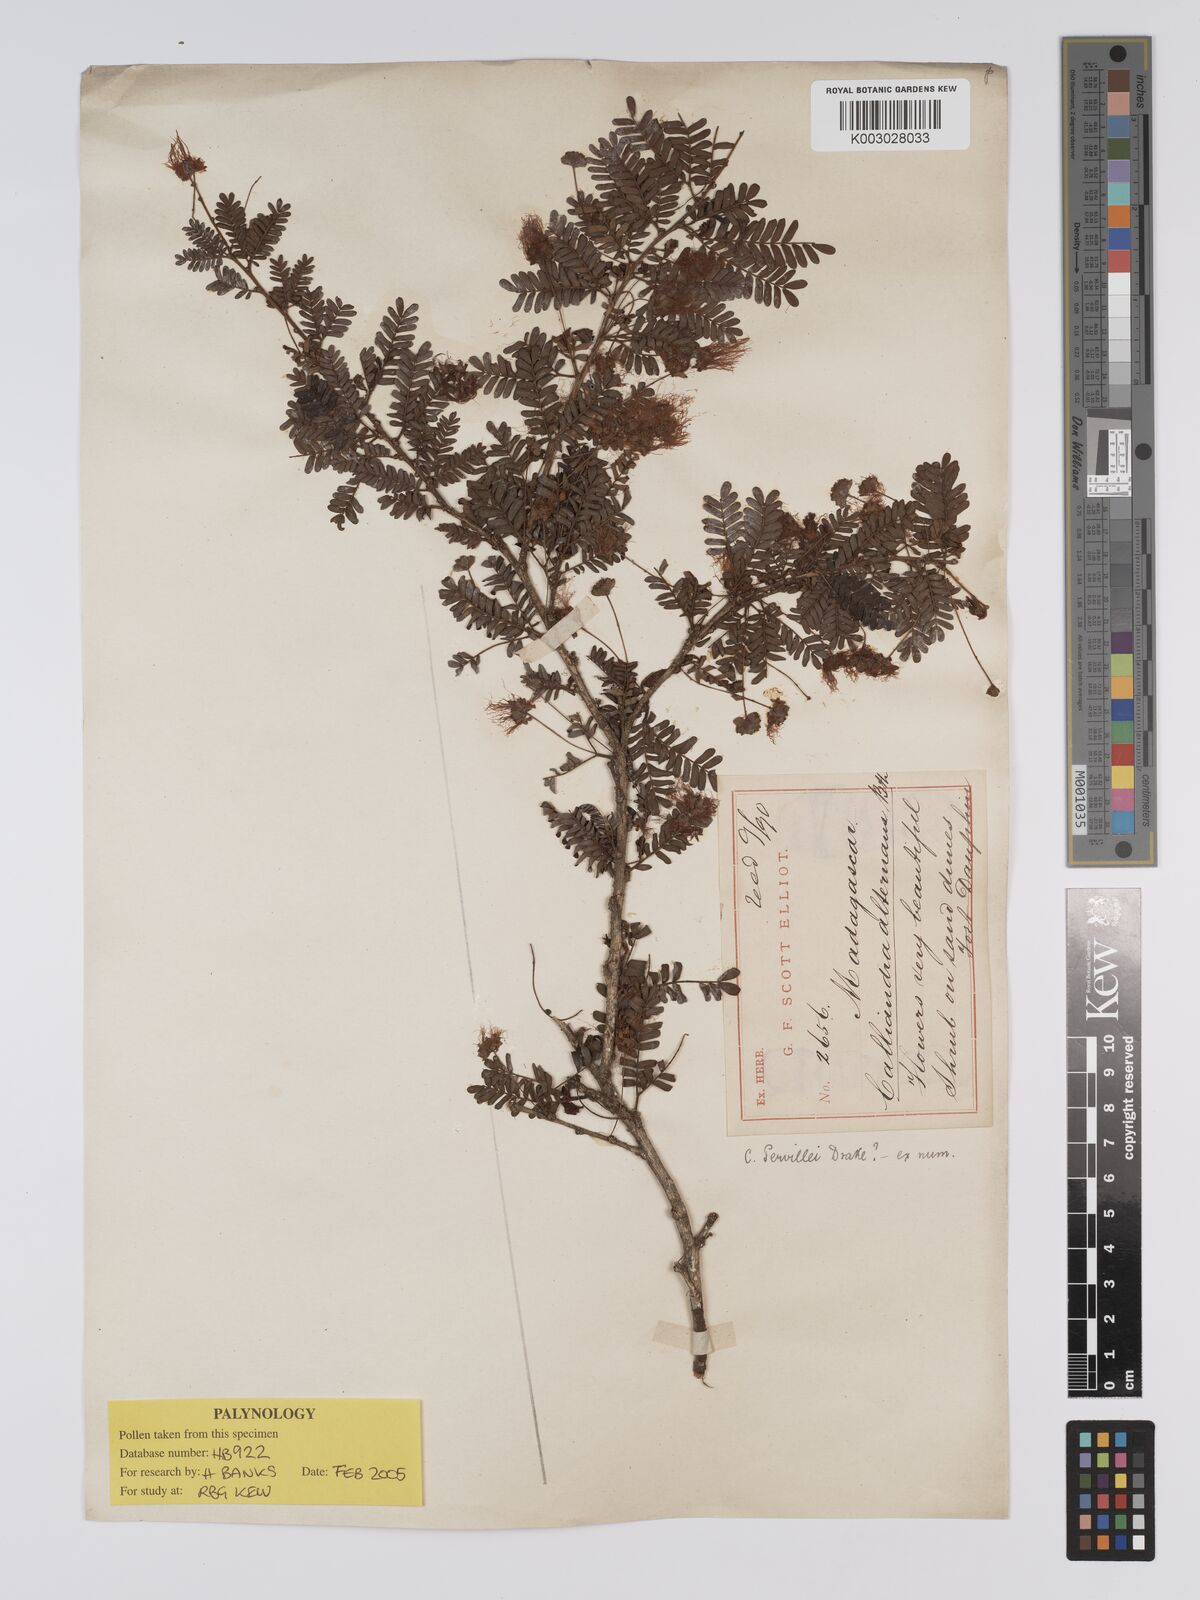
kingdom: Plantae
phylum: Tracheophyta
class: Magnoliopsida
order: Fabales
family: Fabaceae
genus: Viguieranthus
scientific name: Viguieranthus alternans
